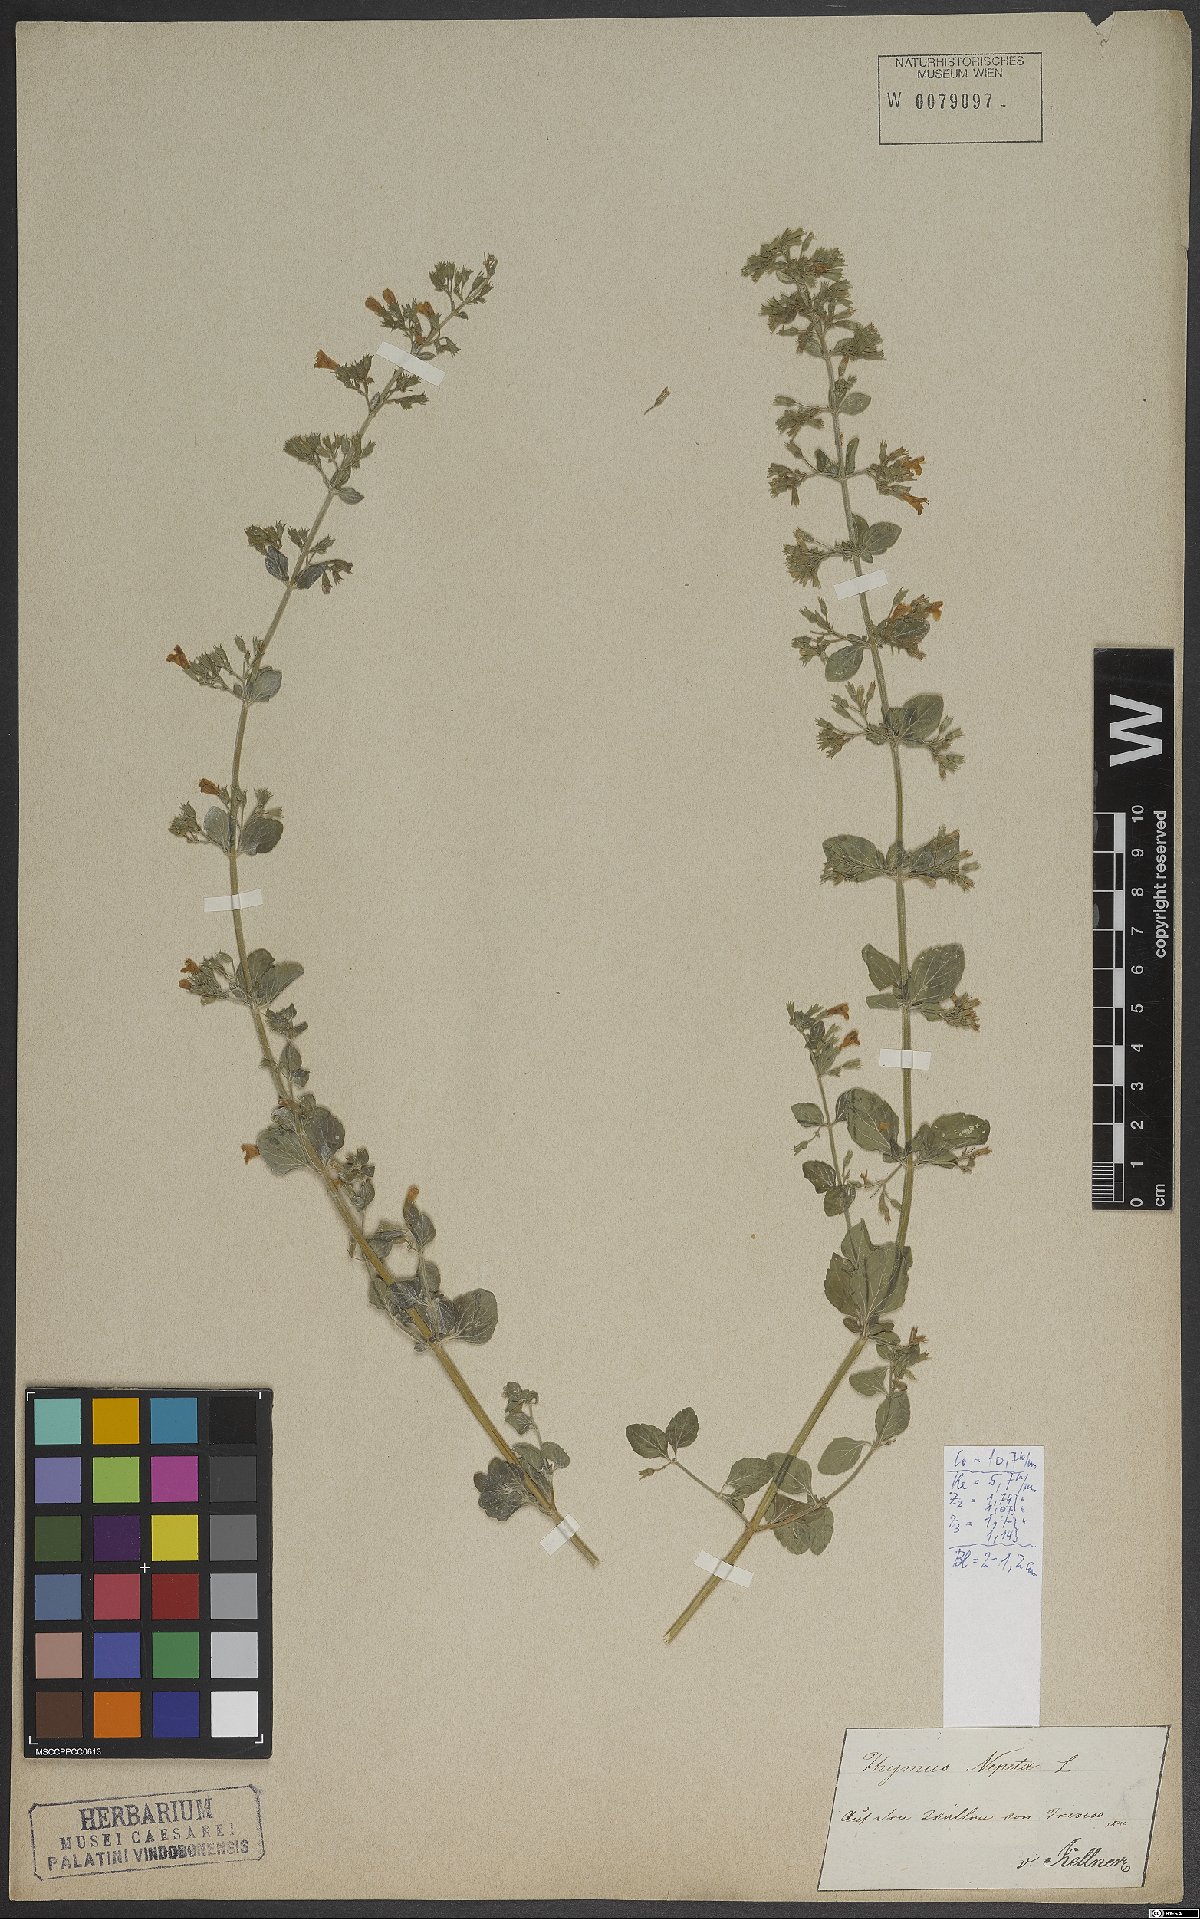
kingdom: Plantae
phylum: Tracheophyta
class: Magnoliopsida
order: Lamiales
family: Lamiaceae
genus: Clinopodium
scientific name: Clinopodium nepeta
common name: Lesser calamint
